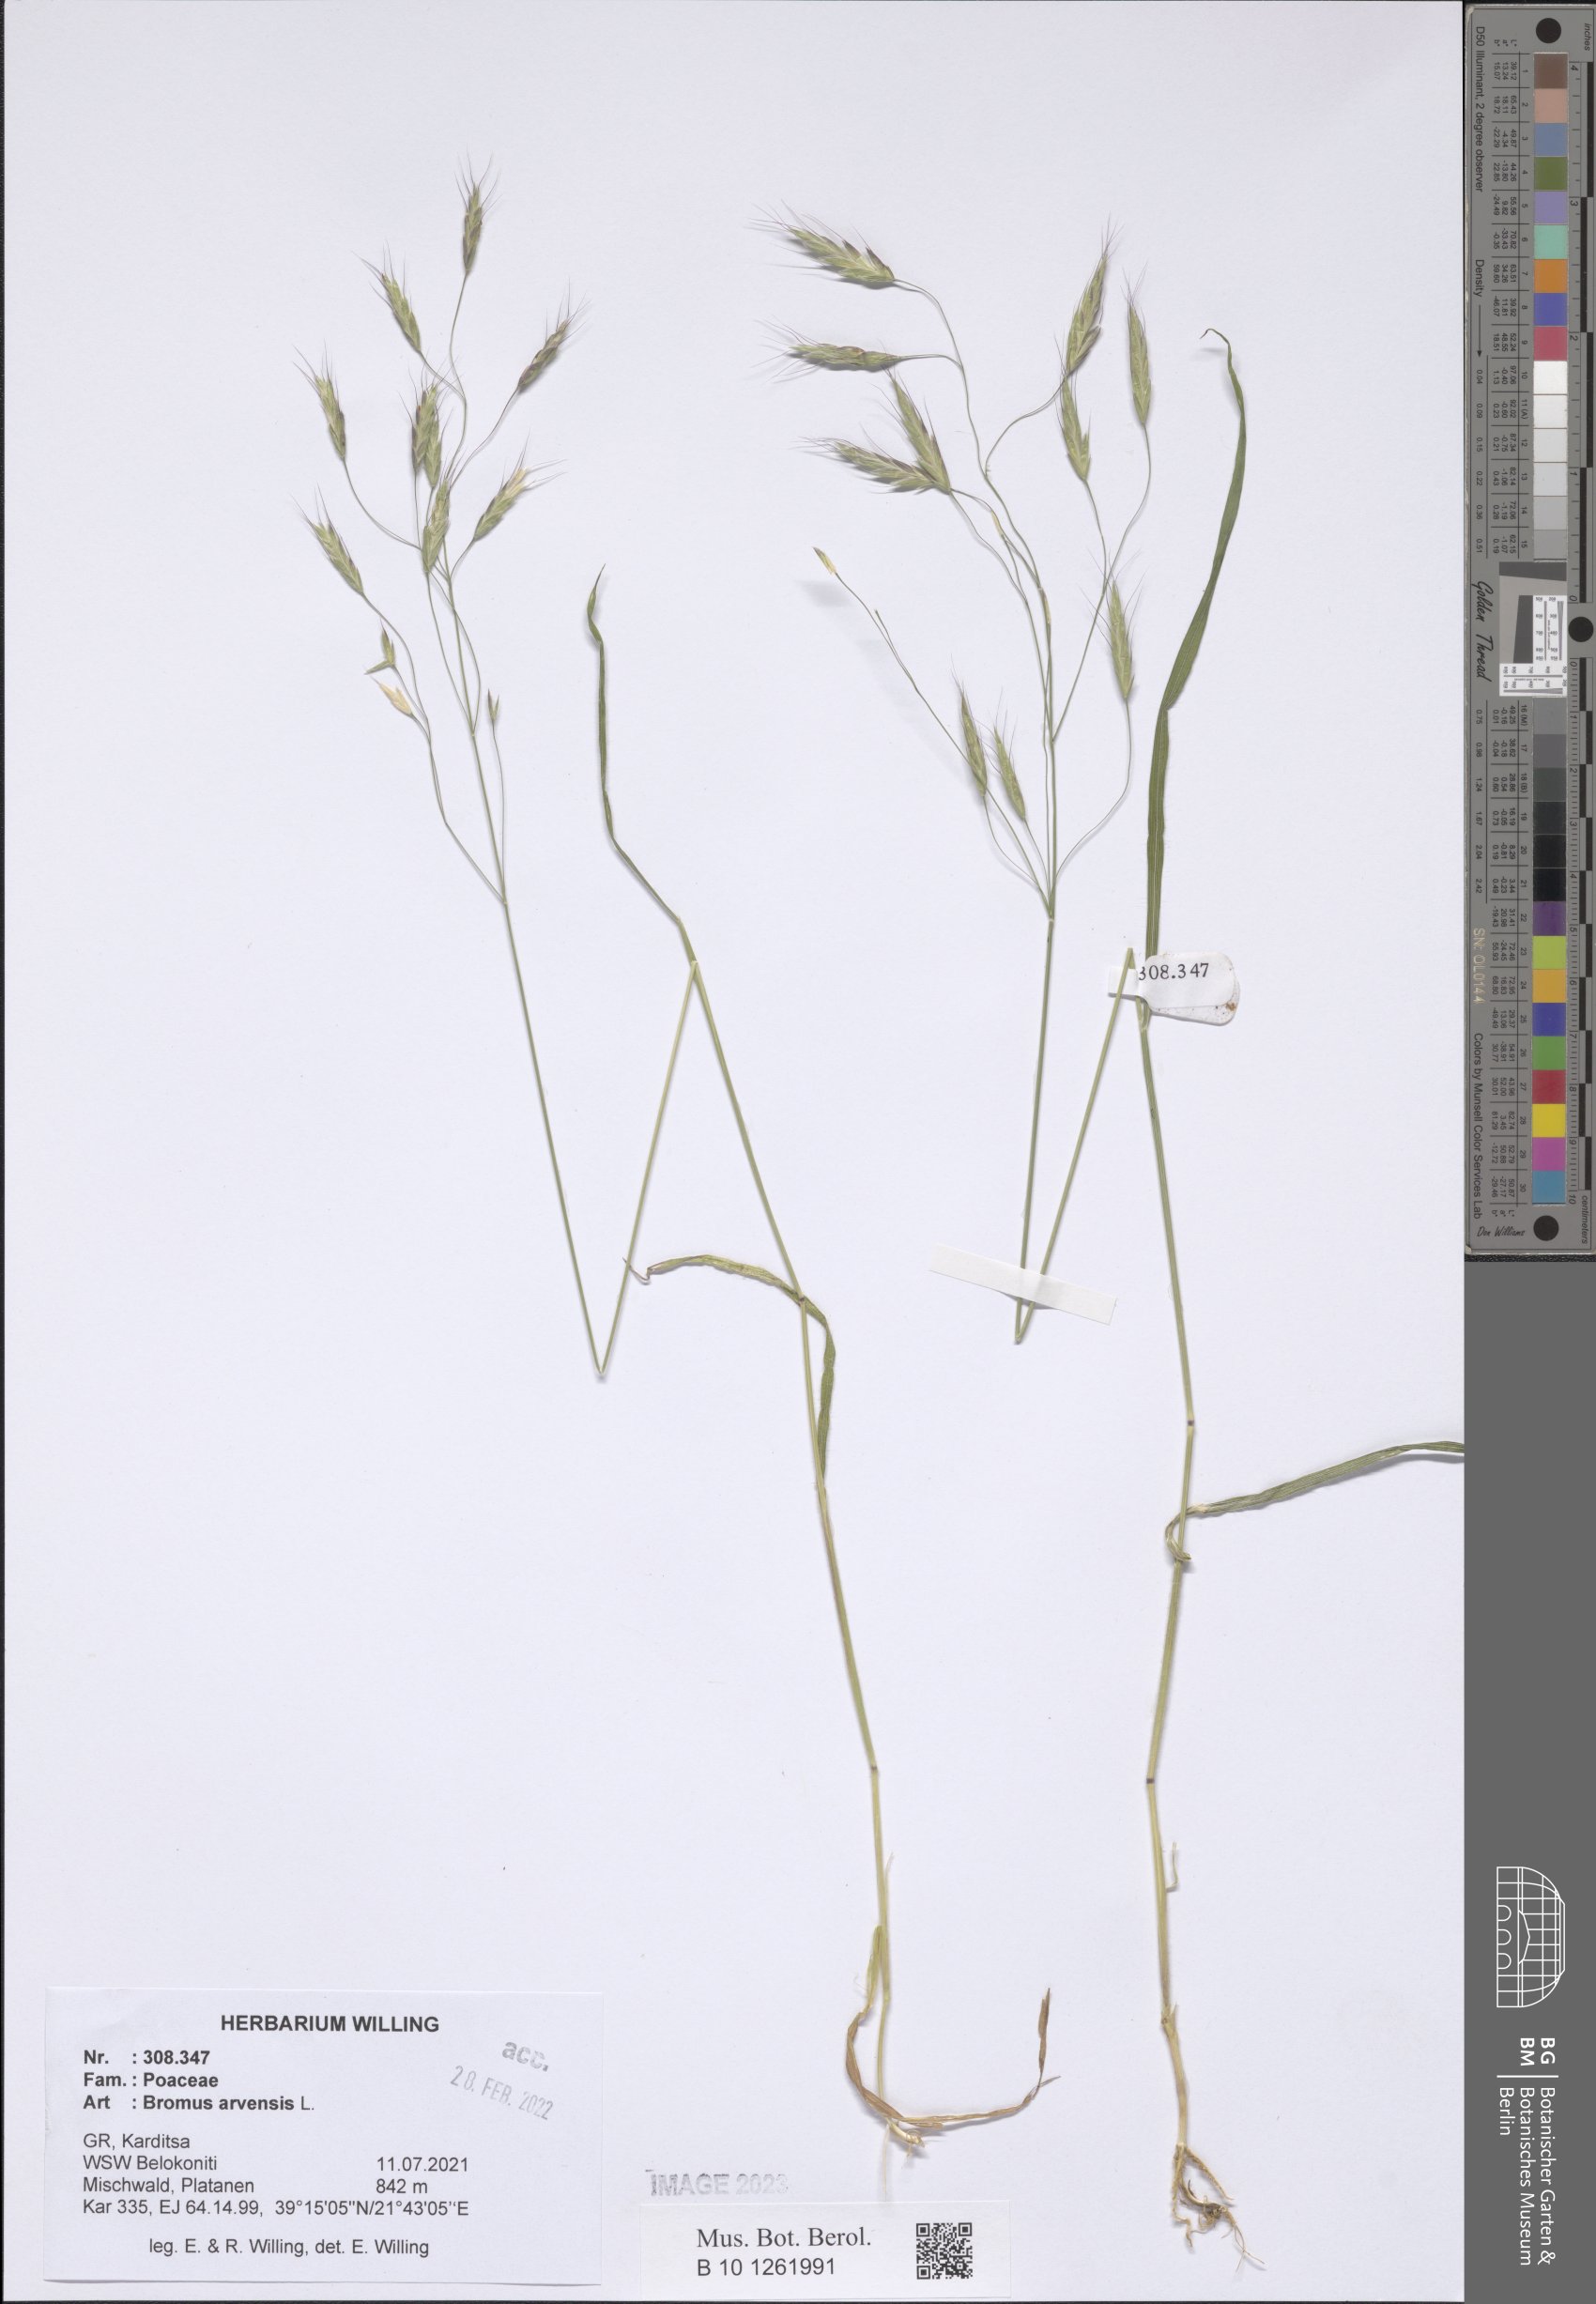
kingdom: Plantae
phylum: Tracheophyta
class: Liliopsida
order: Poales
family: Poaceae
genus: Bromus
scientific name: Bromus arvensis
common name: Field brome
